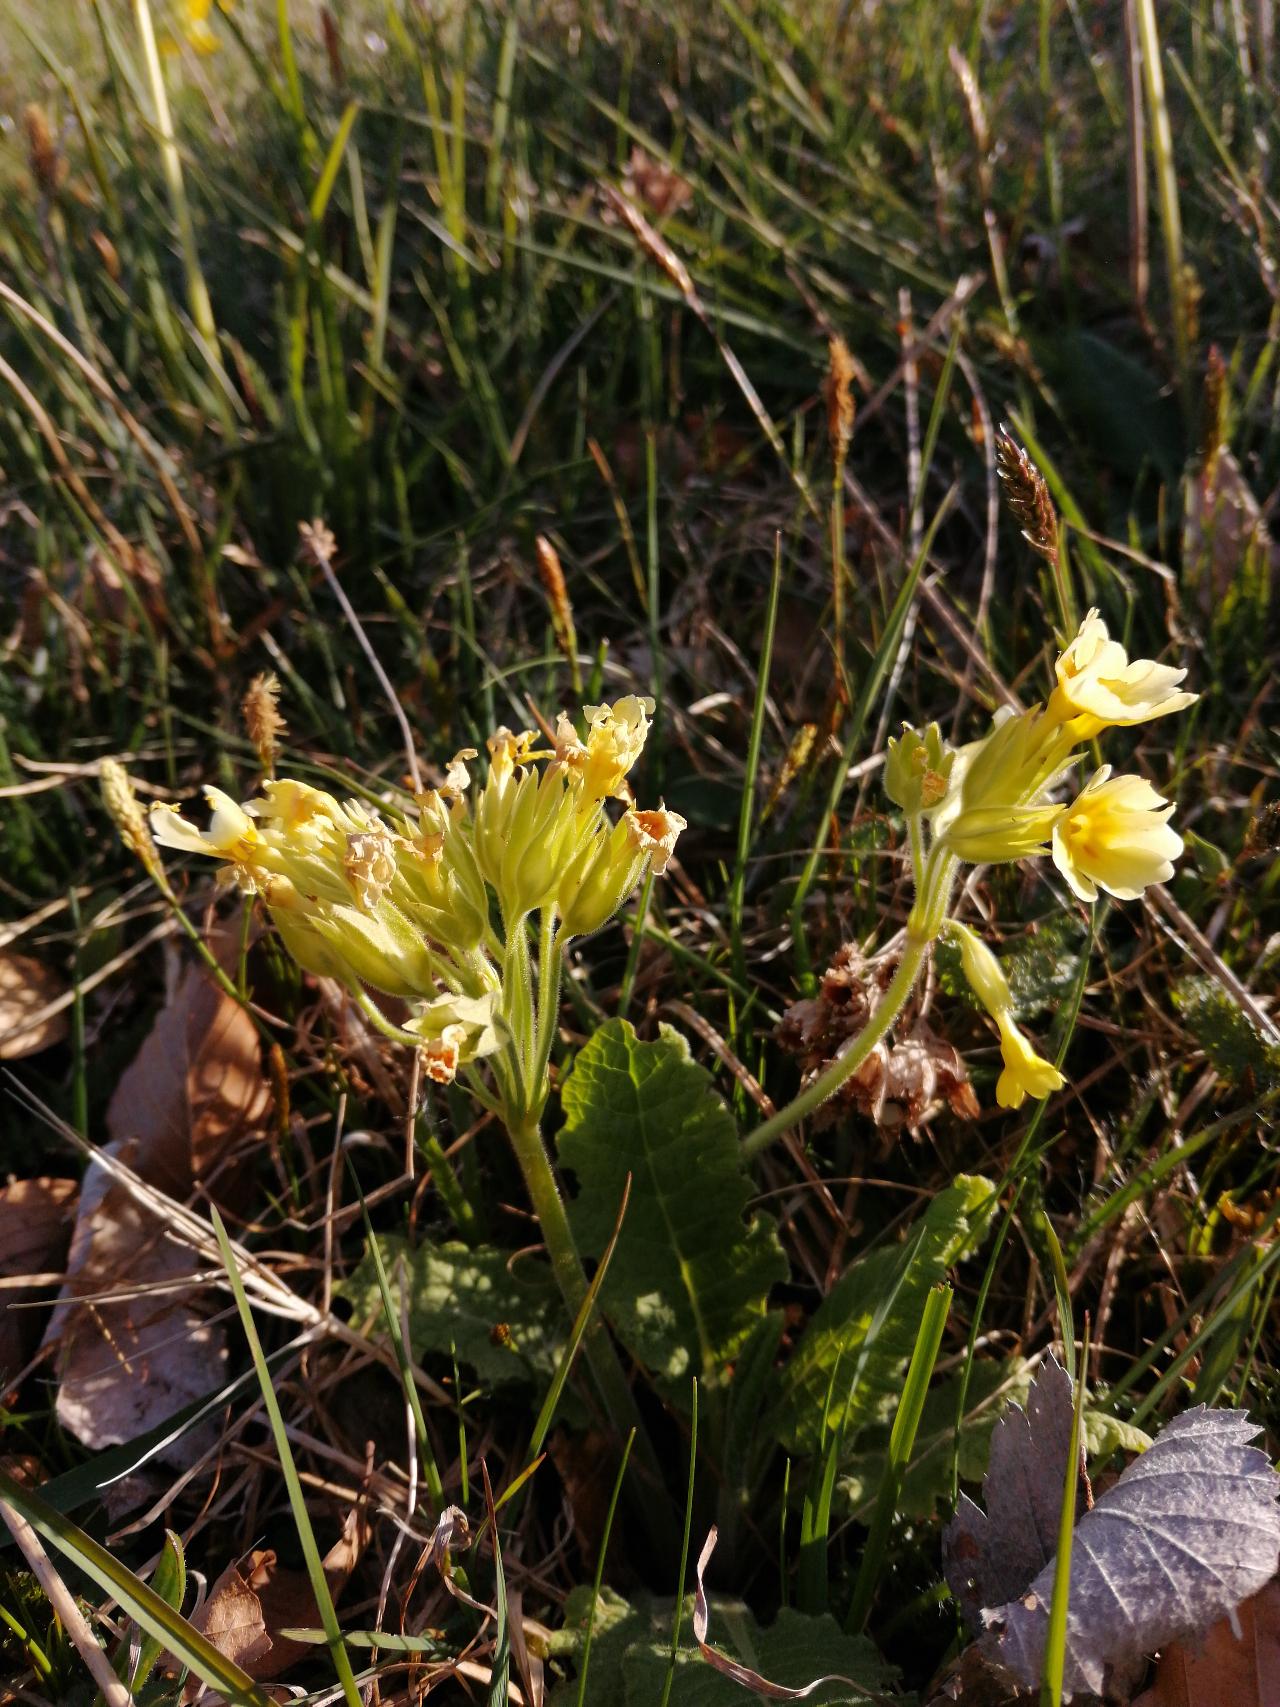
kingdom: Plantae
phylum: Tracheophyta
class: Magnoliopsida
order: Ericales
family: Primulaceae
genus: Primula
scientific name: Primula
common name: Fladkravet kodriver × hulkravet kodriver
